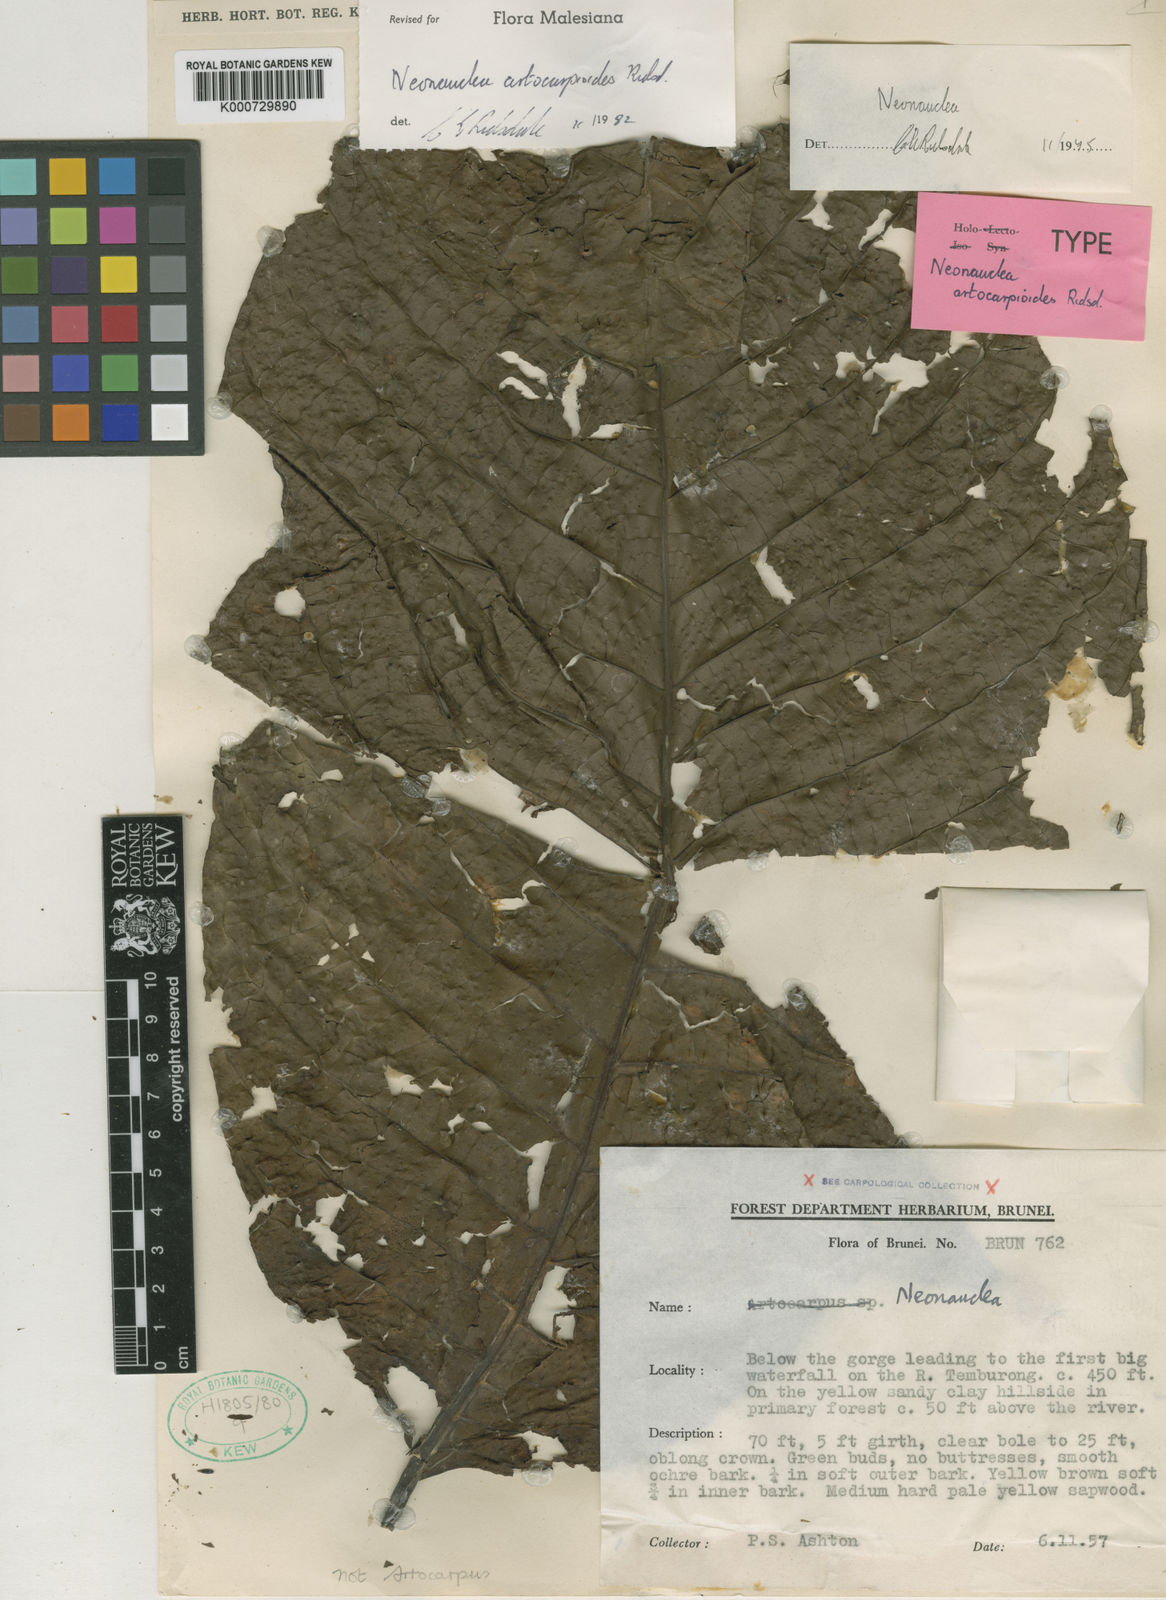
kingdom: Plantae
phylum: Tracheophyta
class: Magnoliopsida
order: Gentianales
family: Rubiaceae
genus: Neonauclea
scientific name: Neonauclea artocarpoides
